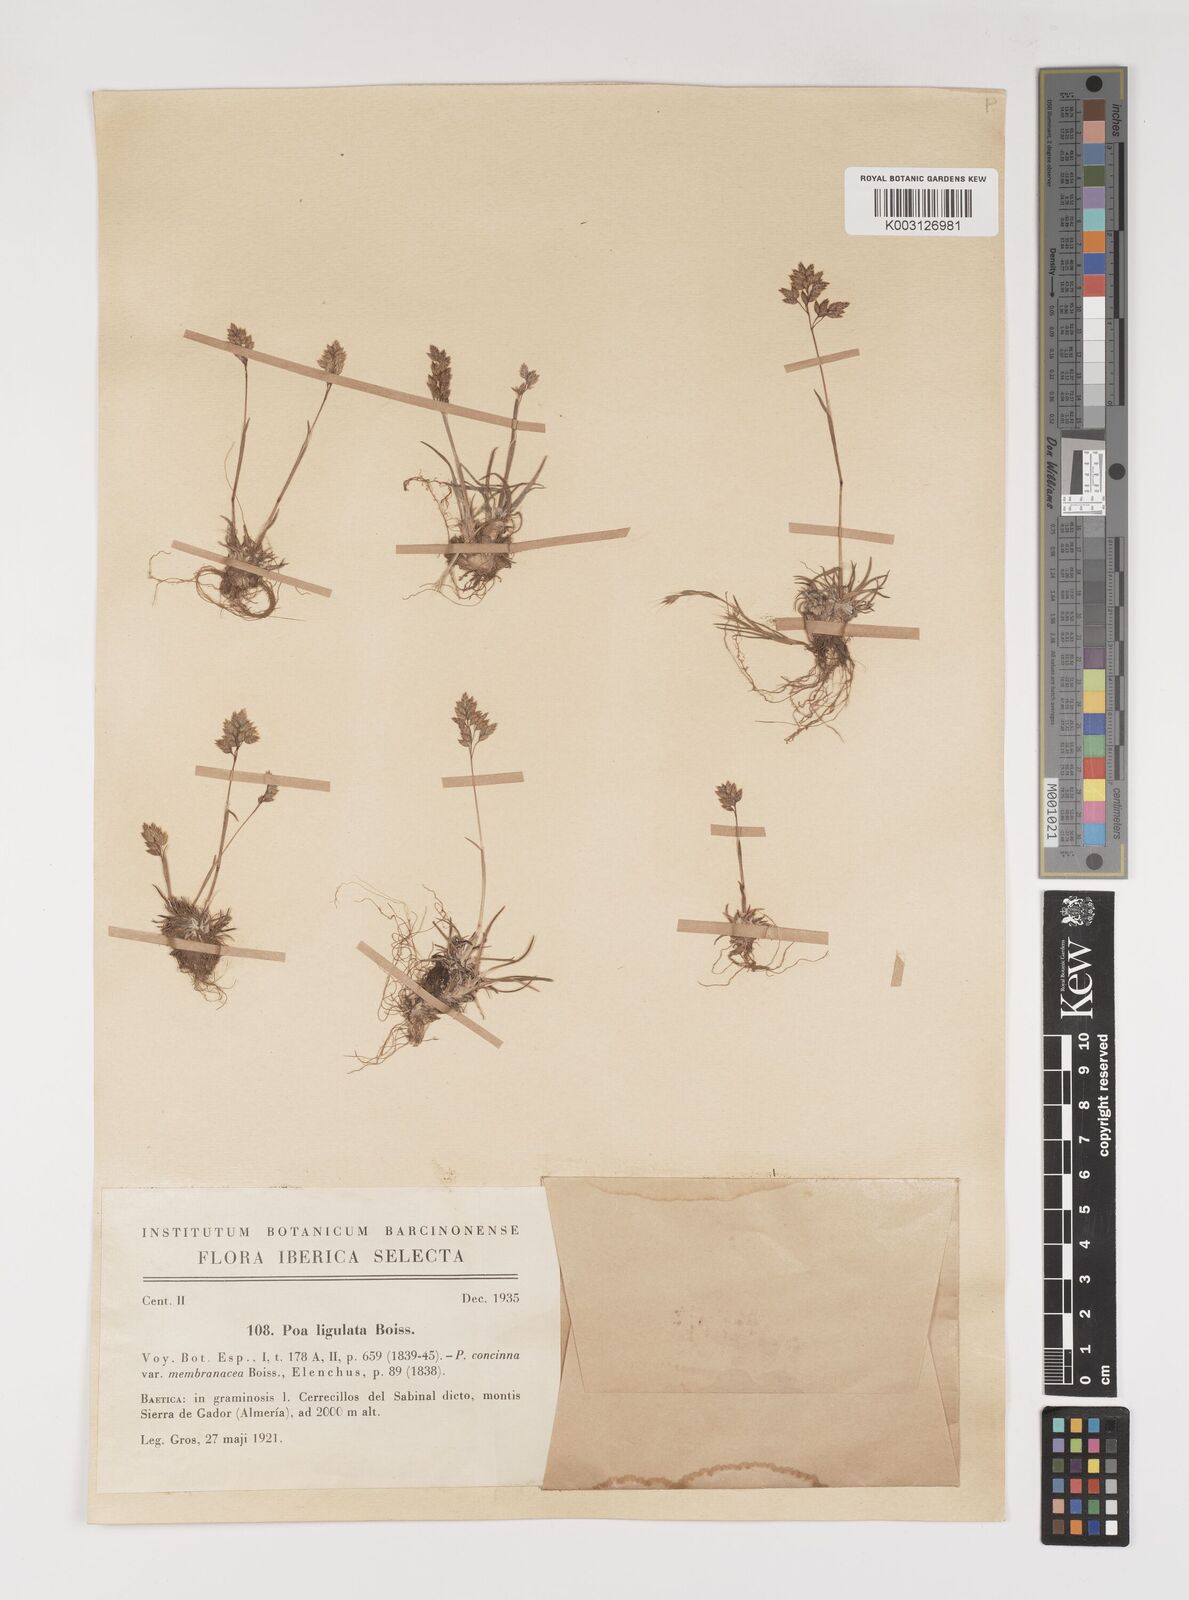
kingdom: Plantae
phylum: Tracheophyta
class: Liliopsida
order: Poales
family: Poaceae
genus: Poa
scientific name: Poa ligulata
